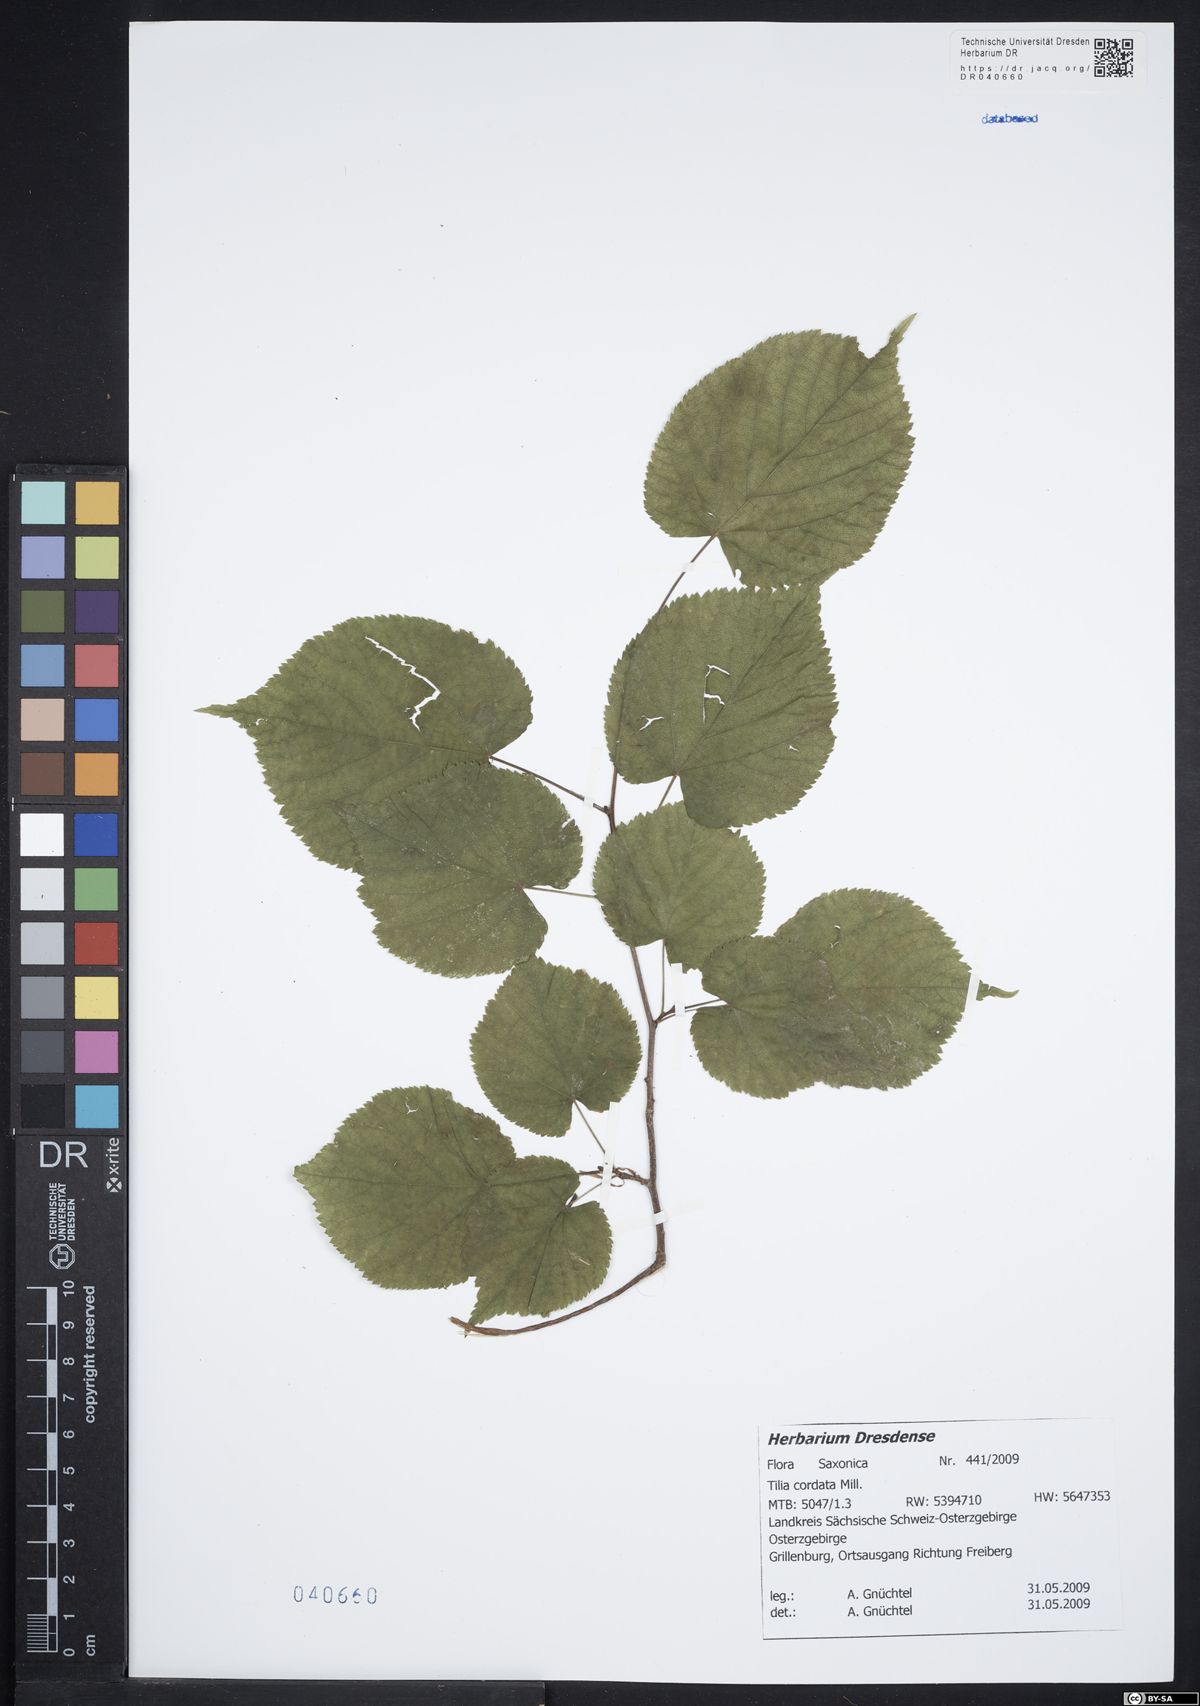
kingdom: Plantae
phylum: Tracheophyta
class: Magnoliopsida
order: Malvales
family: Malvaceae
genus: Tilia
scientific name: Tilia cordata
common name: Small-leaved lime
